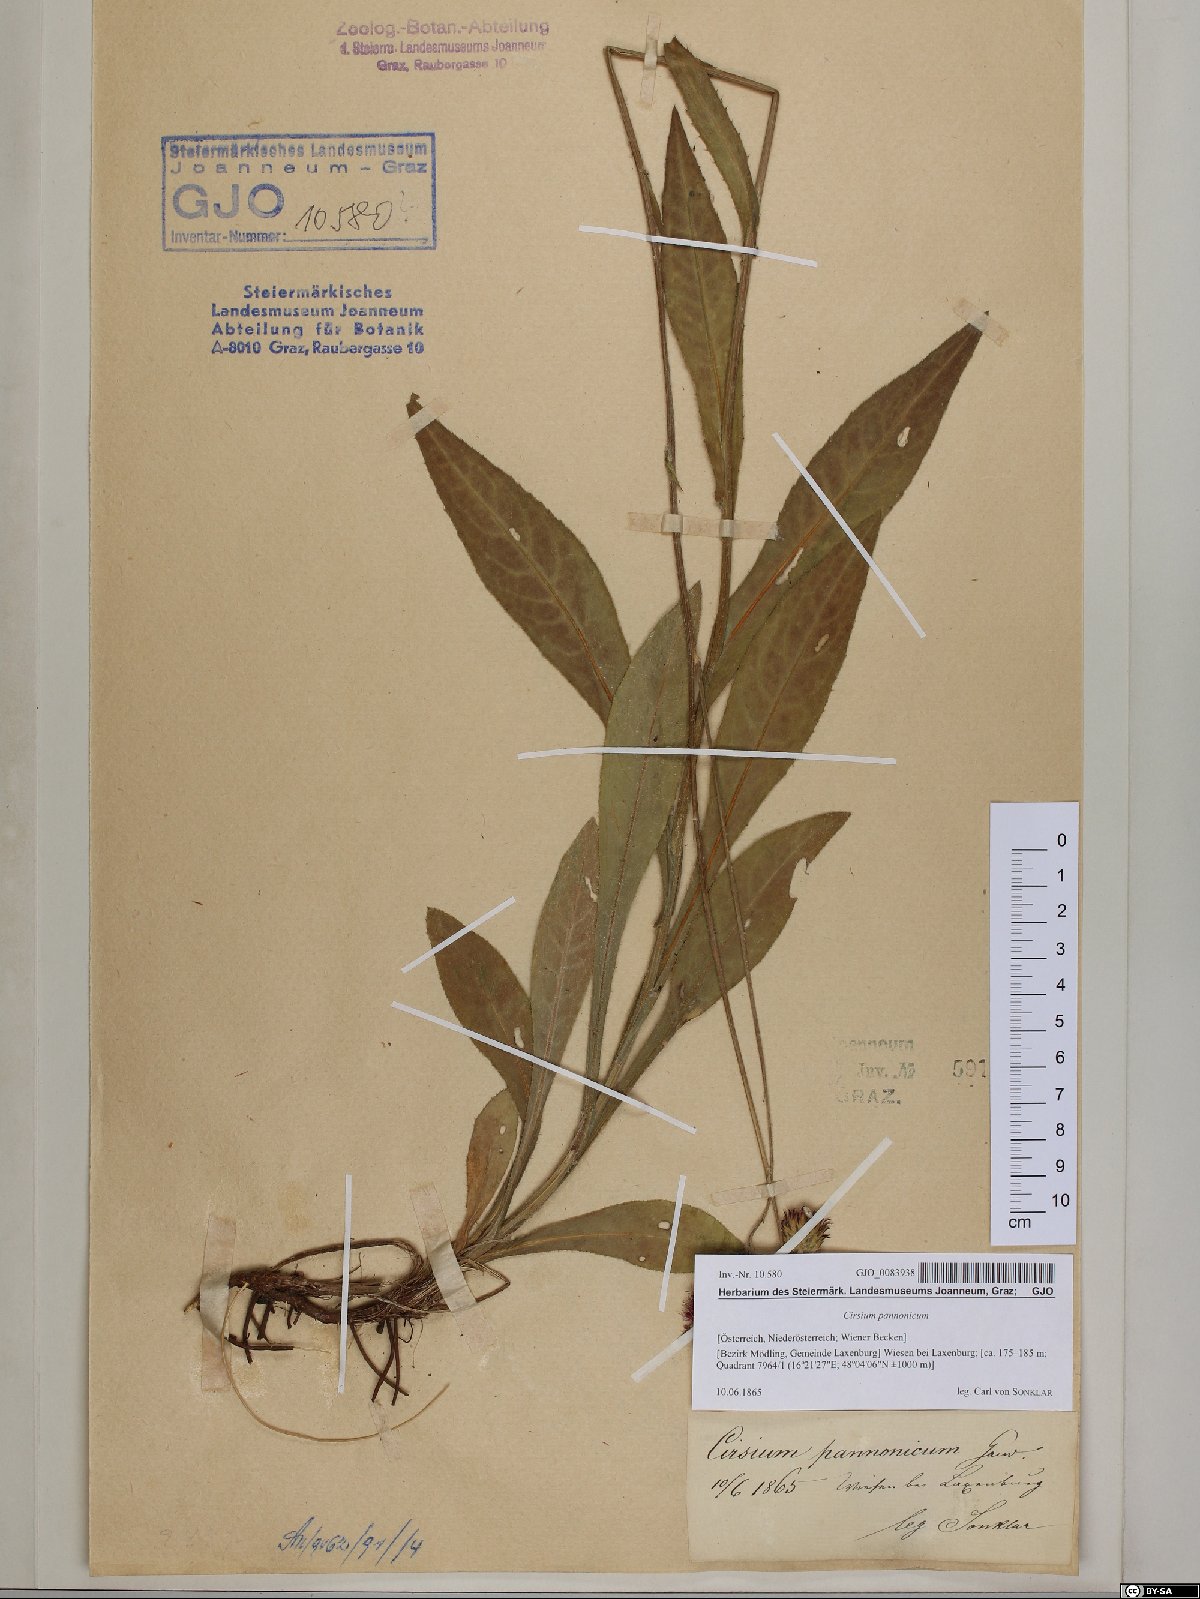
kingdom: Plantae
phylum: Tracheophyta
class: Magnoliopsida
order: Asterales
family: Asteraceae
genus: Cirsium
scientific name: Cirsium pannonicum
